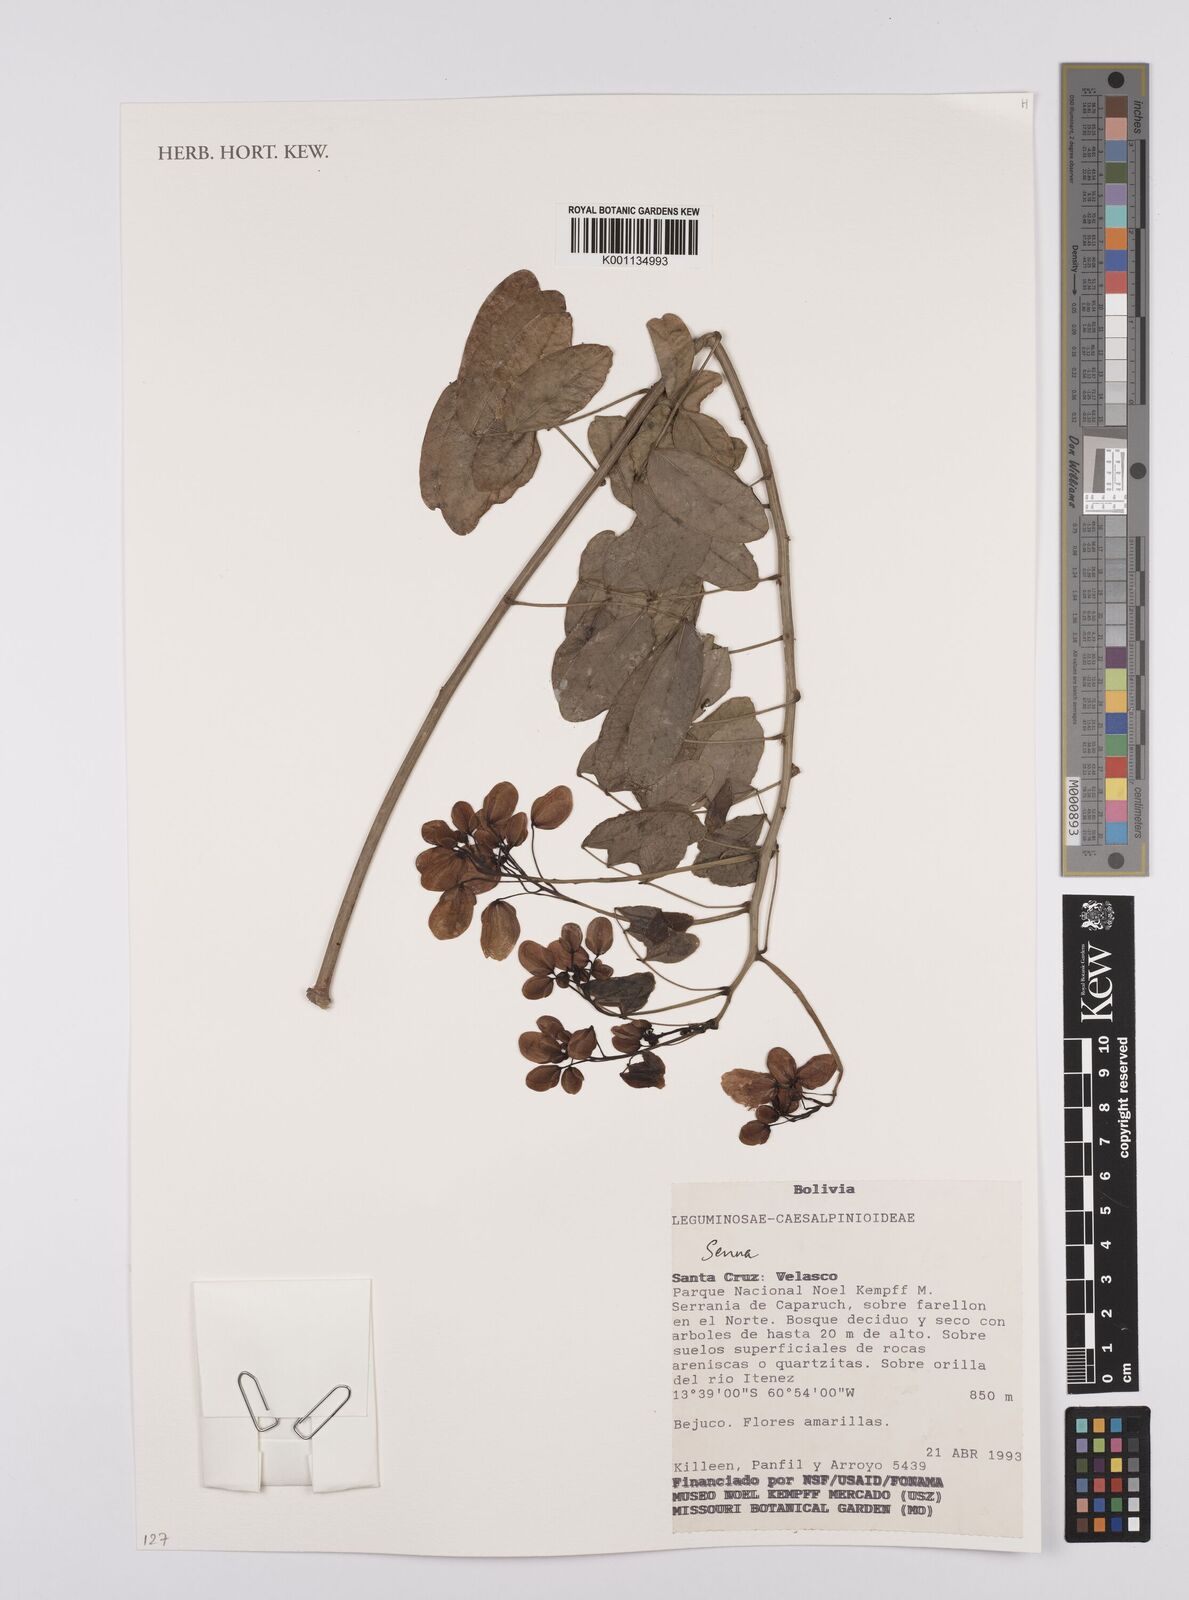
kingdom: Plantae
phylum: Tracheophyta
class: Magnoliopsida
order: Fabales
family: Fabaceae
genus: Senna
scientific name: Senna
